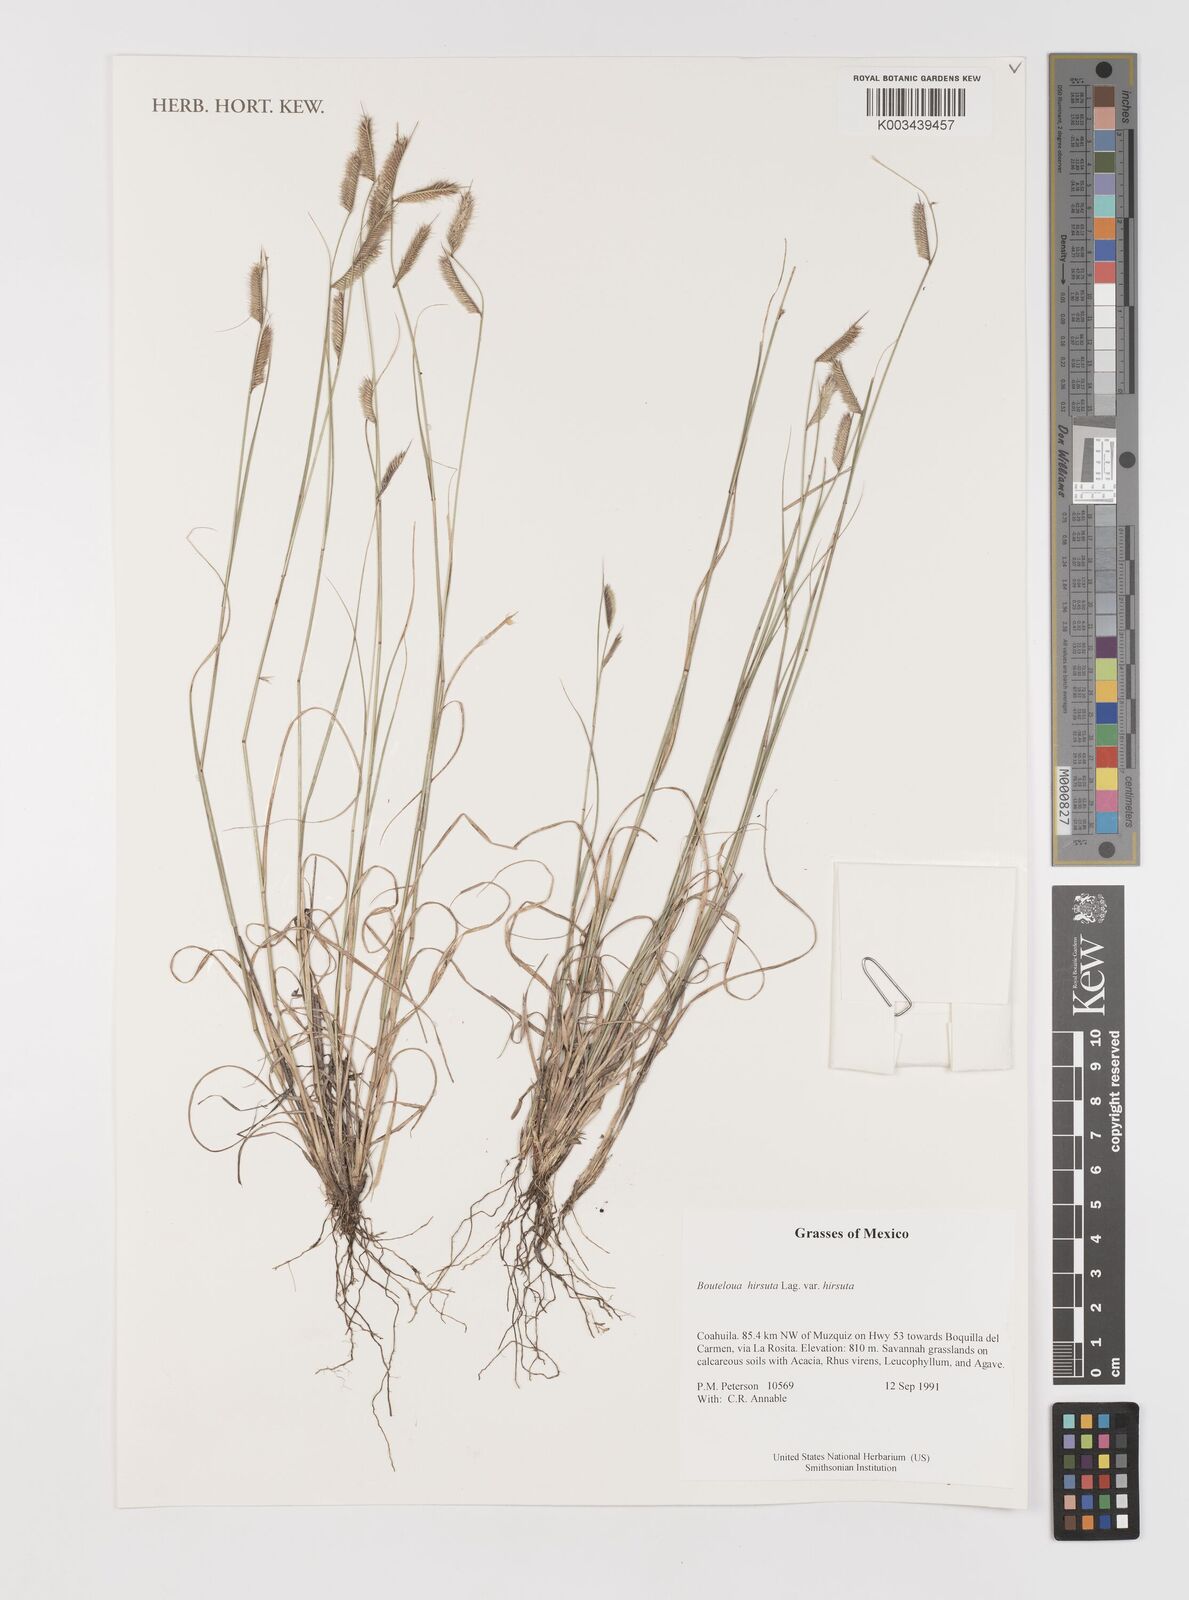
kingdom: Plantae
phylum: Tracheophyta
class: Liliopsida
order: Poales
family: Poaceae
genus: Bouteloua
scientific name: Bouteloua hirsuta
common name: Hairy grama
